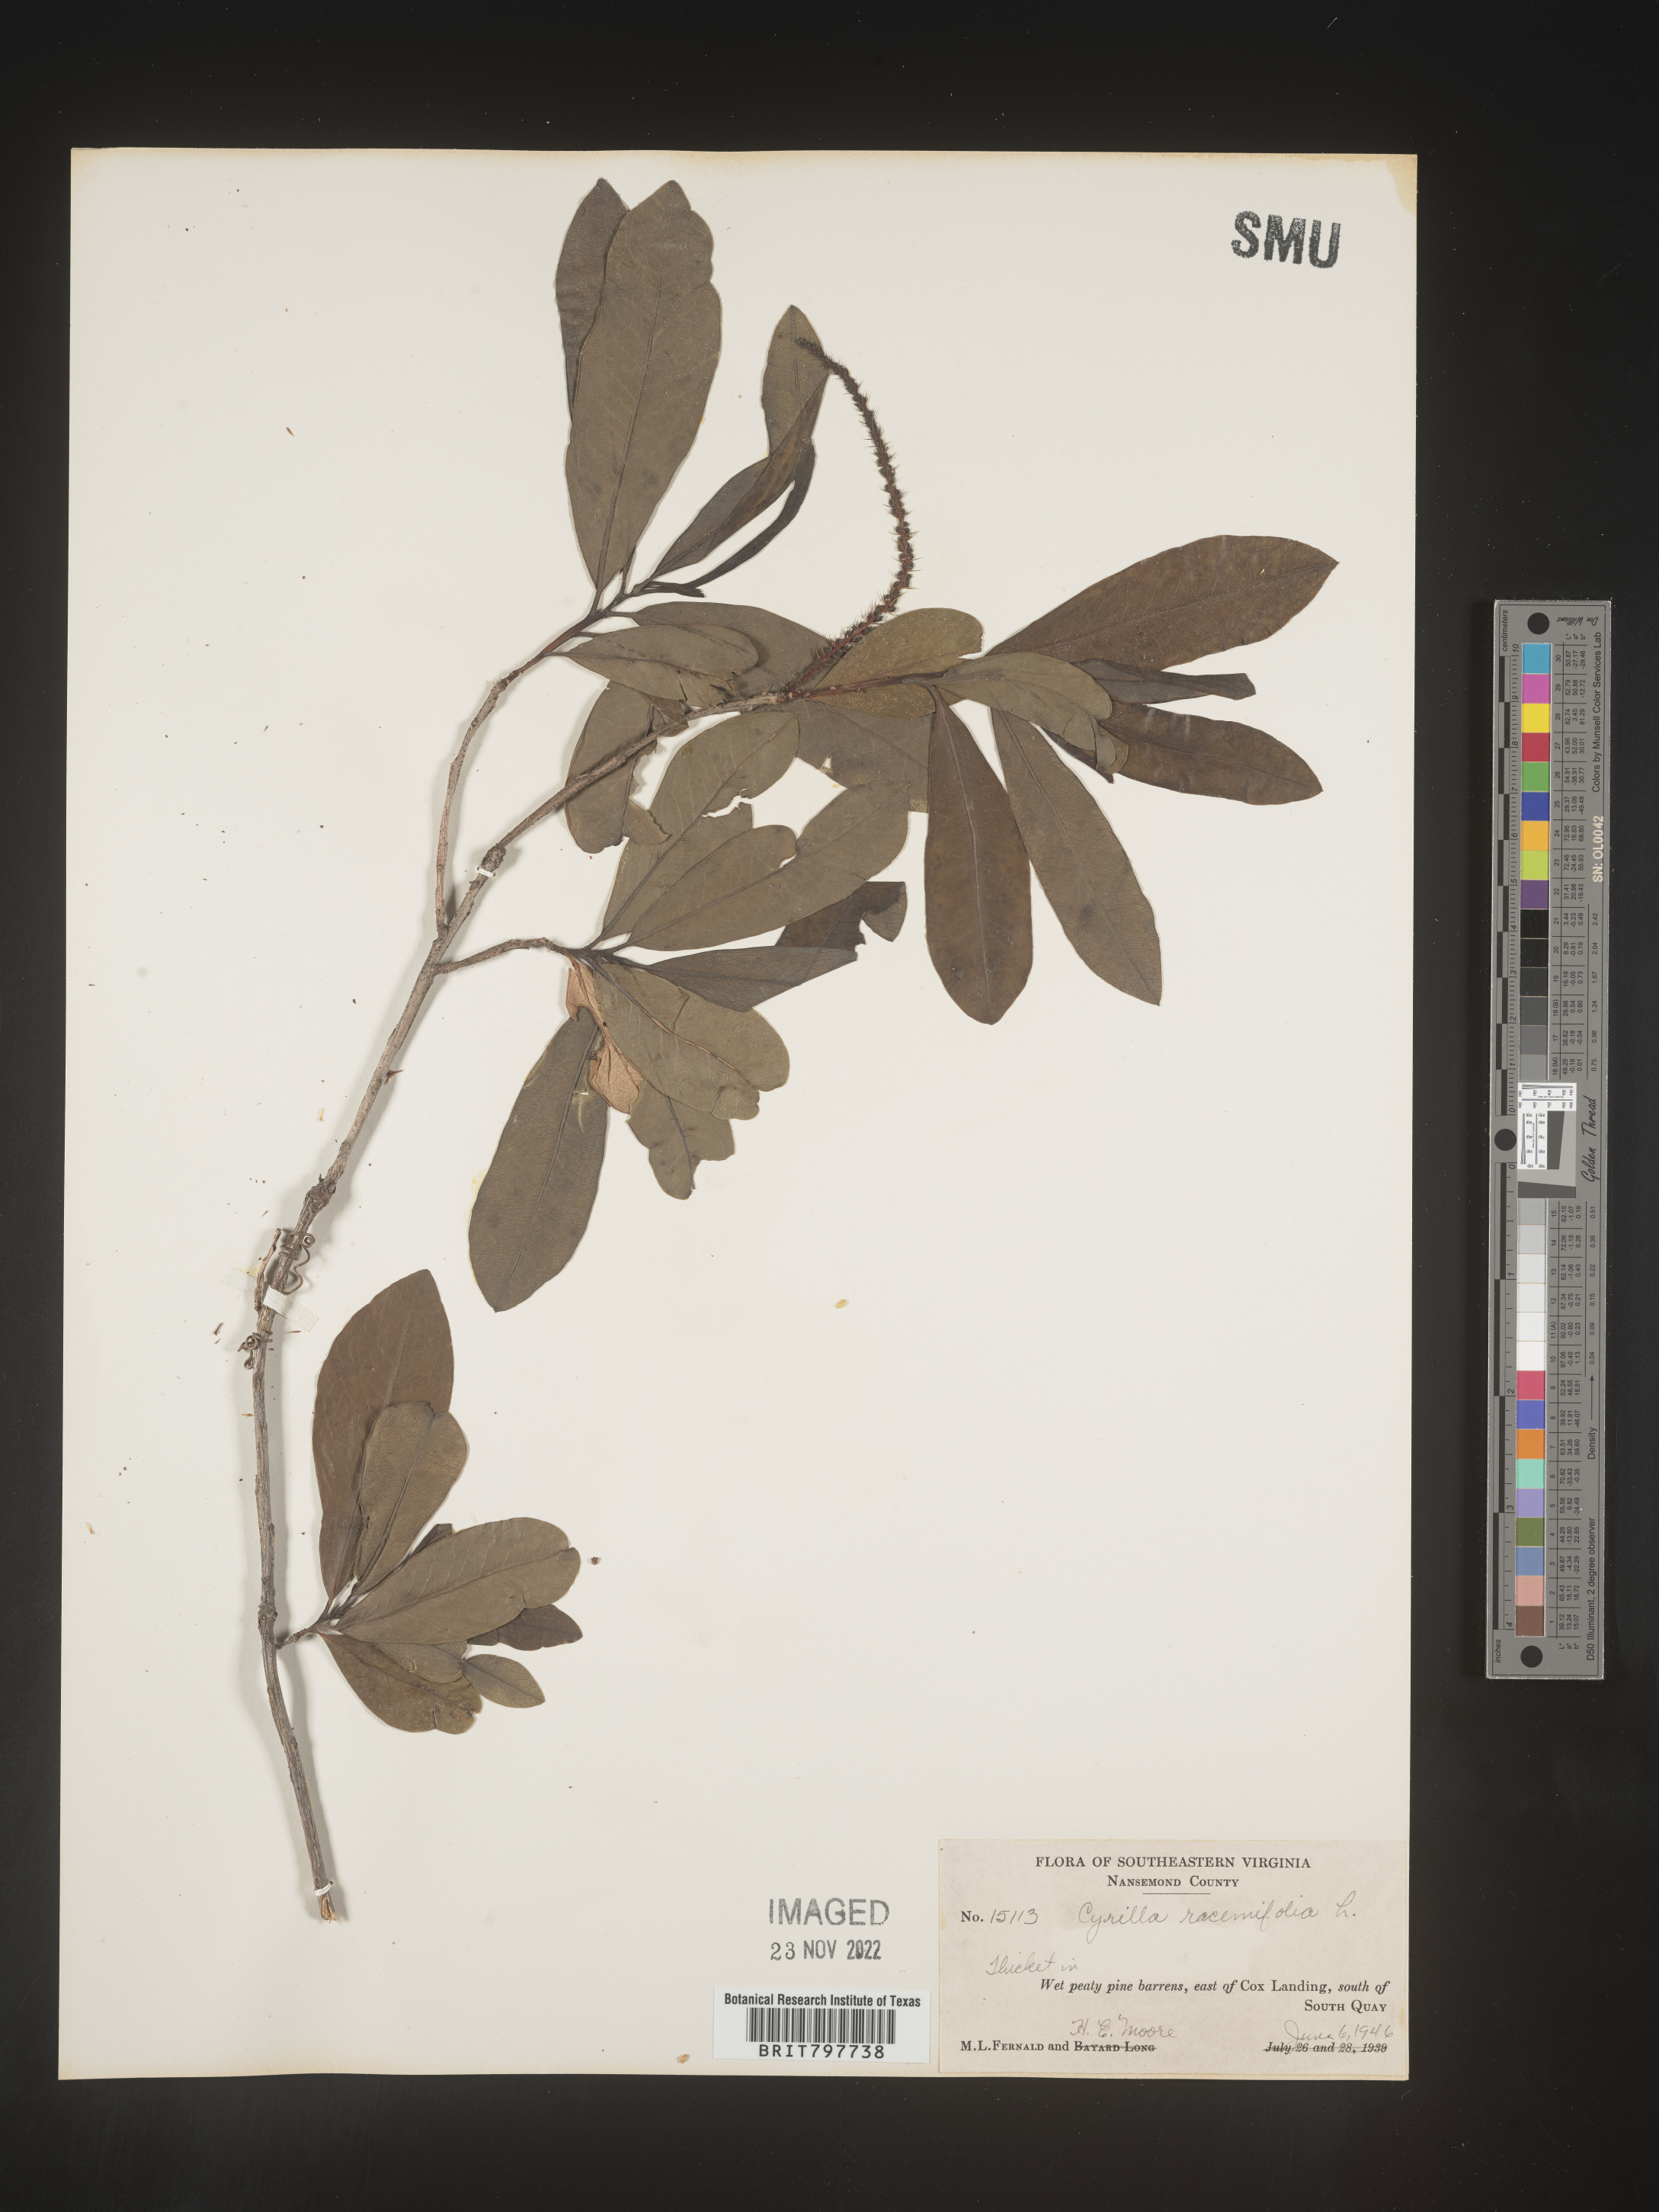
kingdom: Plantae
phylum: Tracheophyta
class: Magnoliopsida
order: Ericales
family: Cyrillaceae
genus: Cyrilla
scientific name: Cyrilla racemiflora
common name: Black titi
